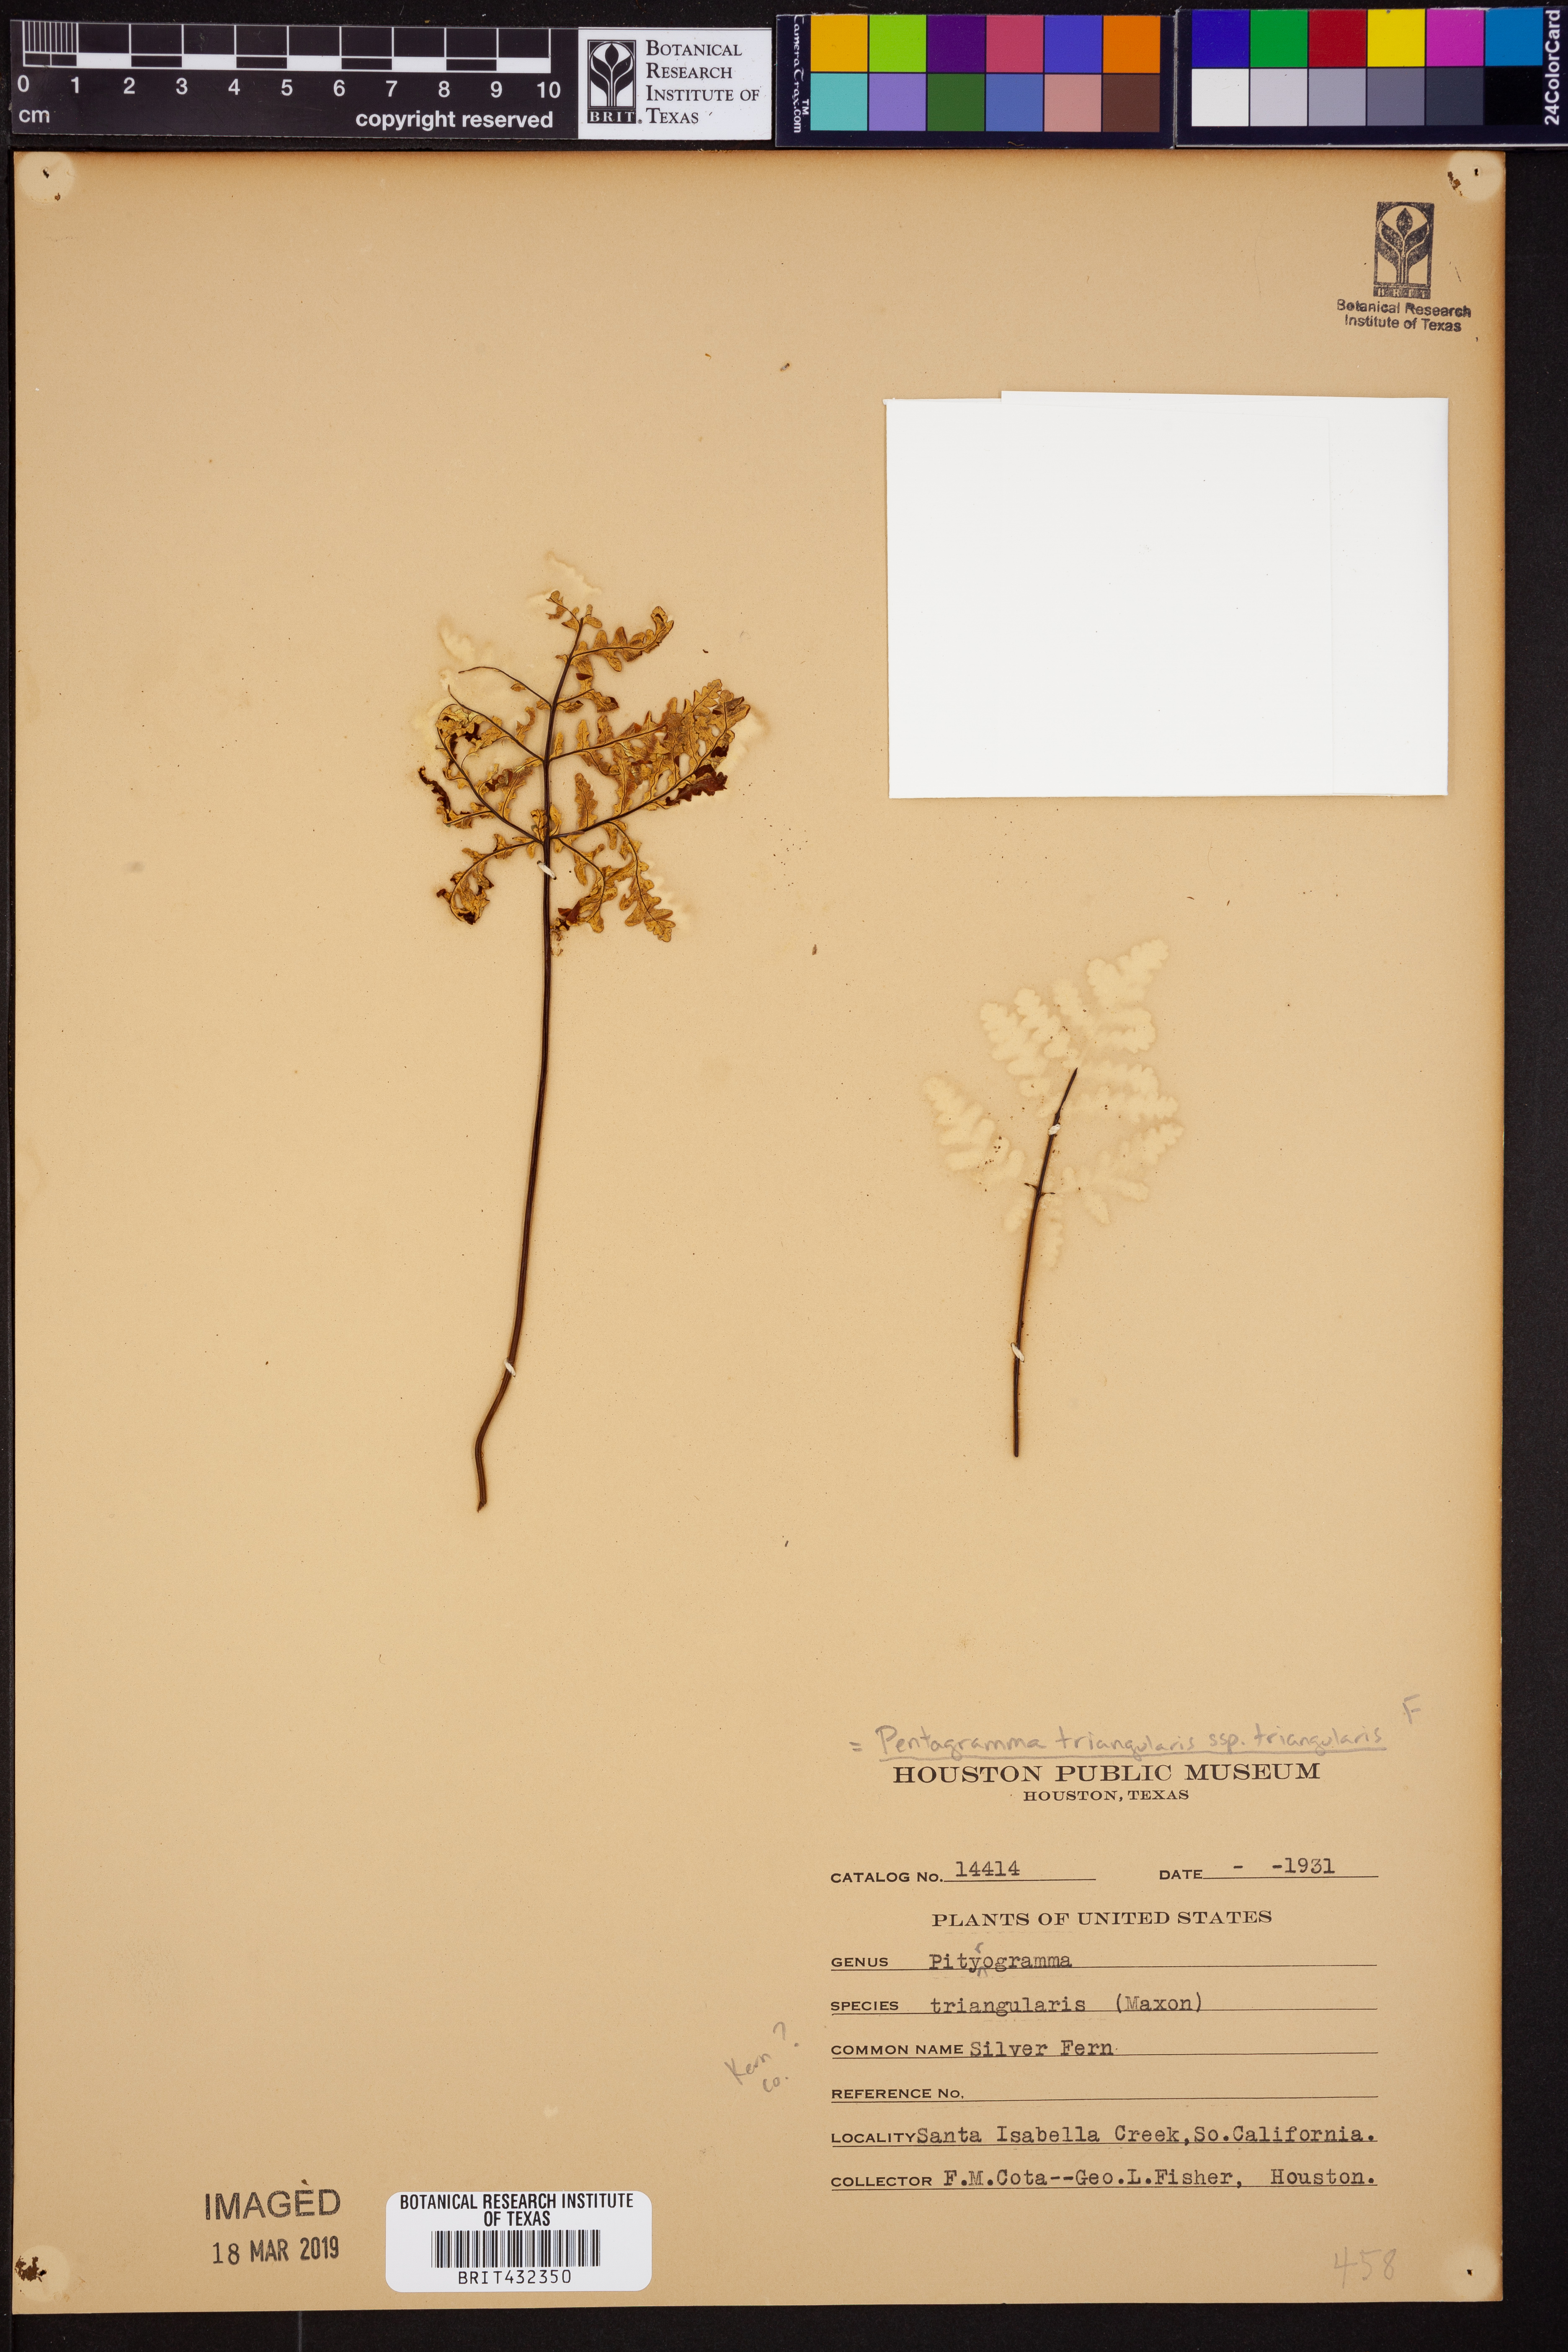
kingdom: Plantae
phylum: Tracheophyta
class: Polypodiopsida
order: Polypodiales
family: Pteridaceae
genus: Pentagramma
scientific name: Pentagramma triangularis
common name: Gold fern
